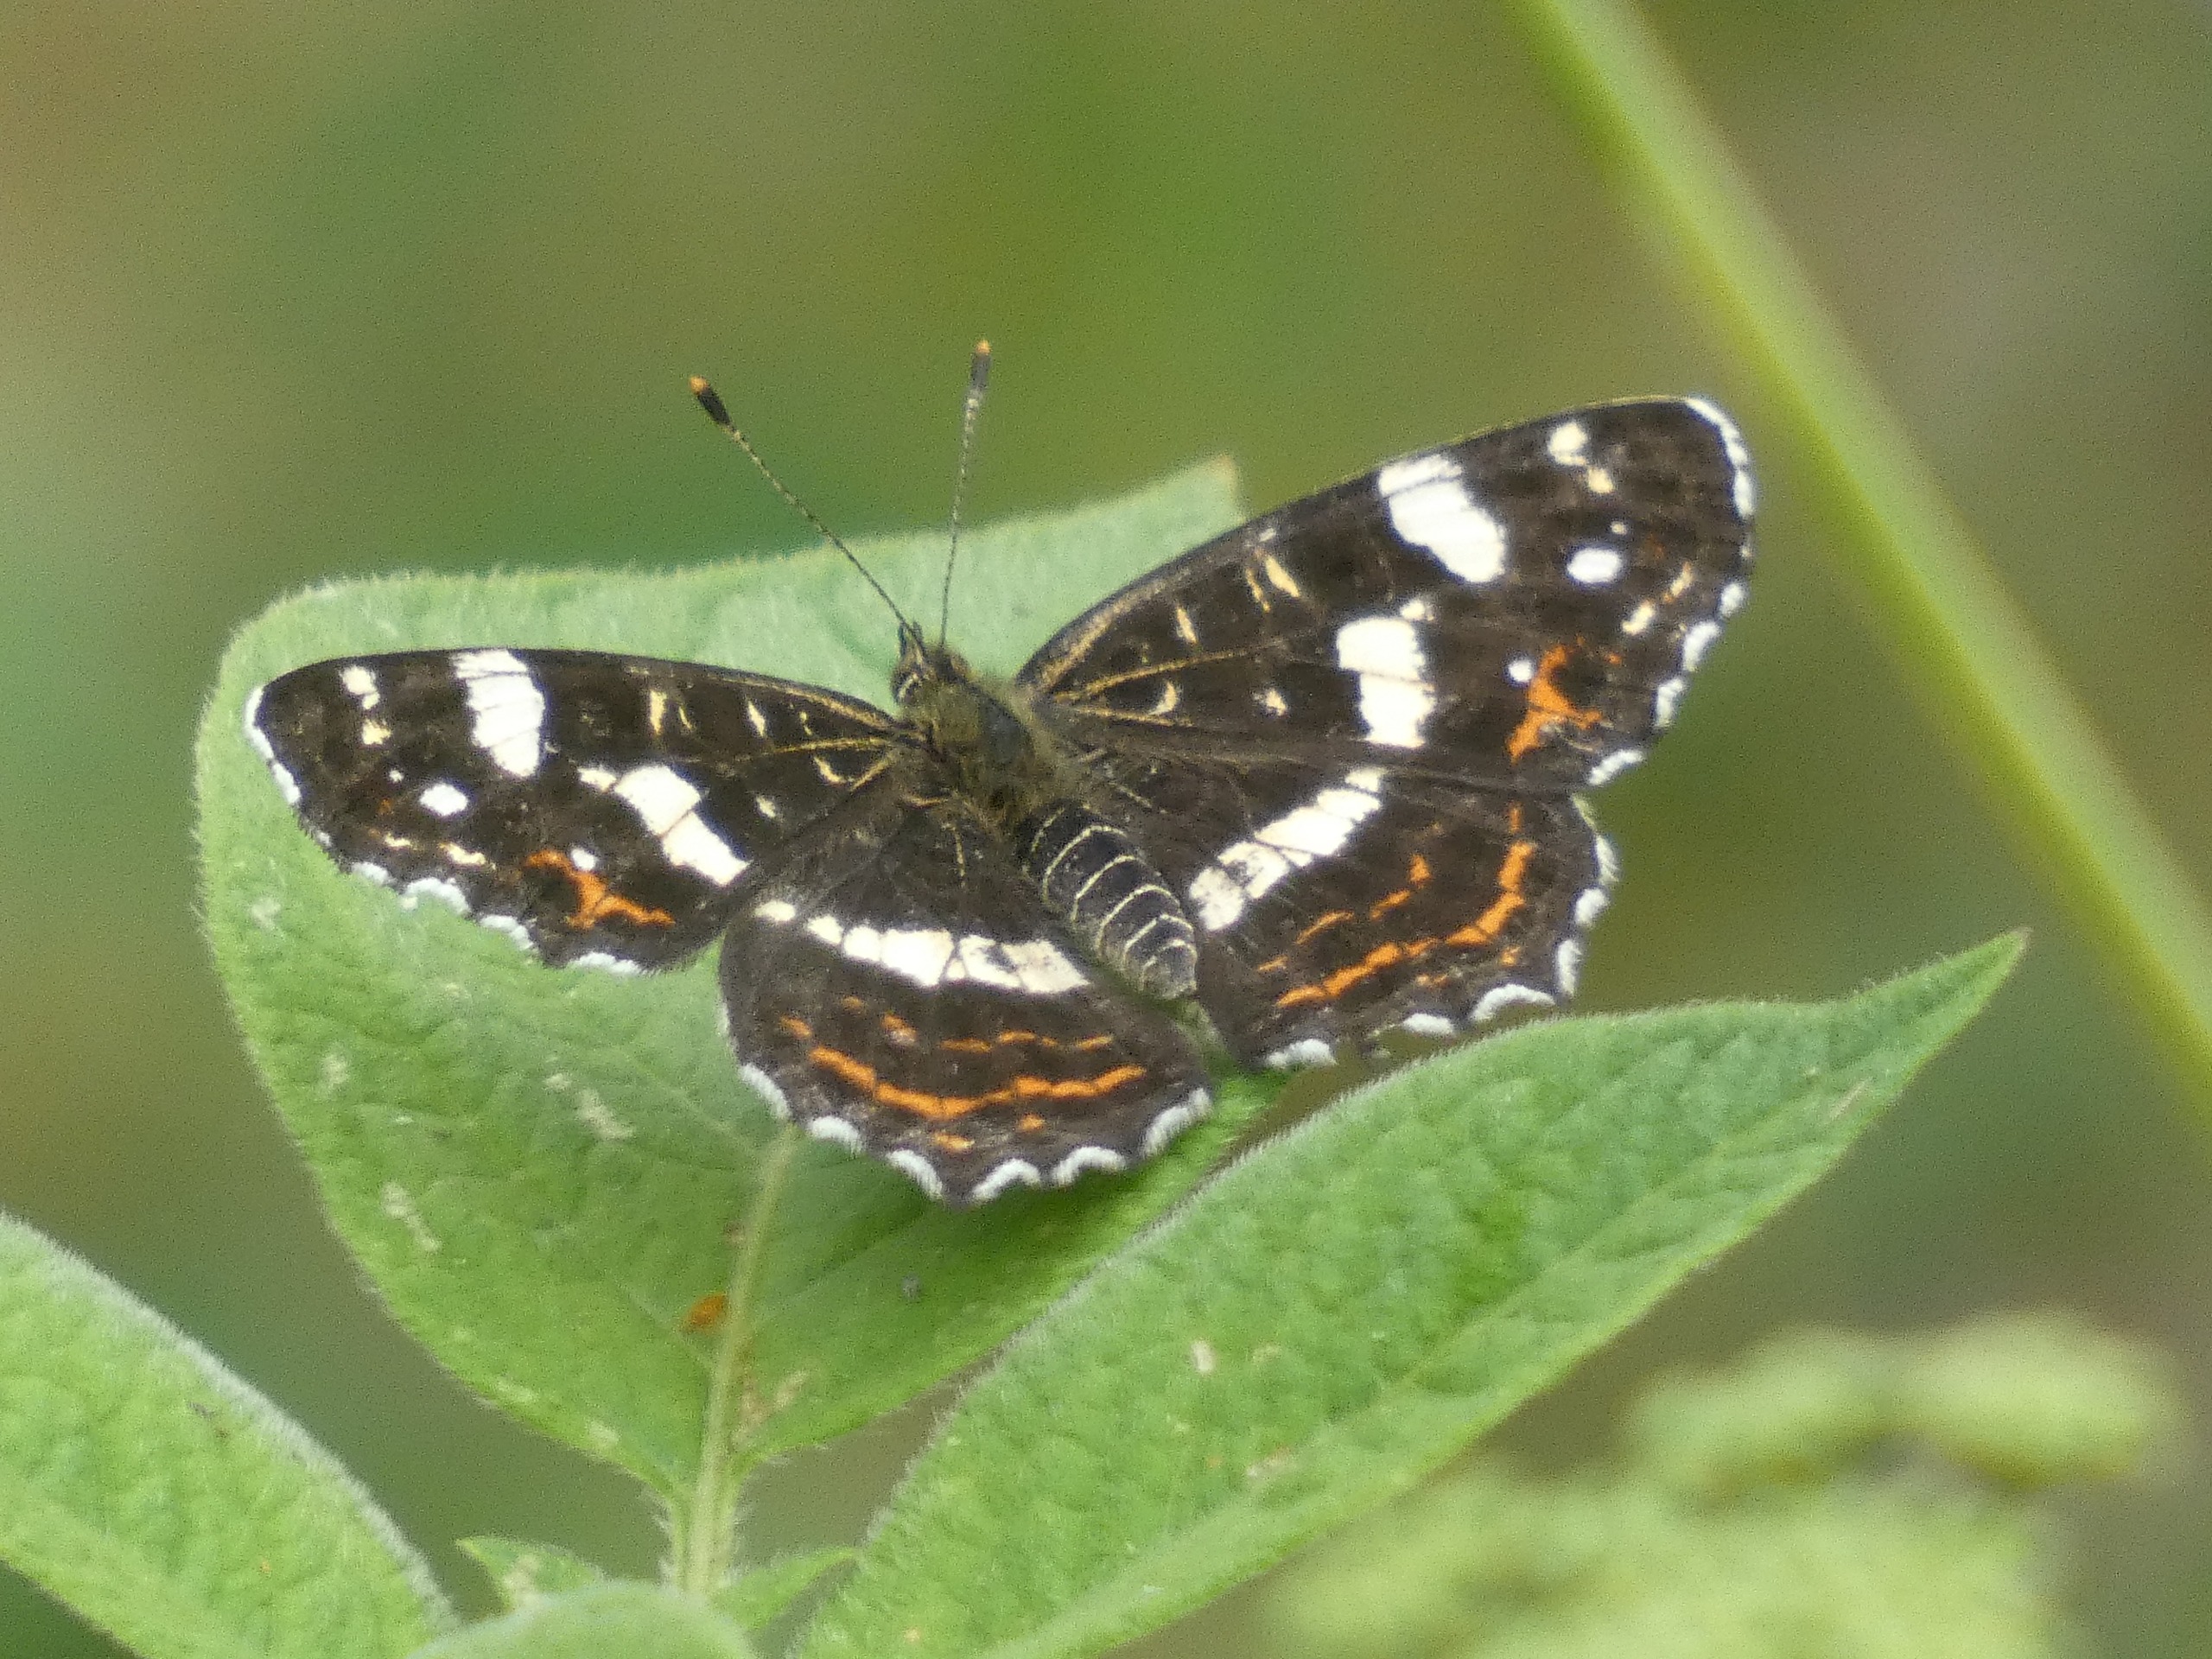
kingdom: Animalia
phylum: Arthropoda
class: Insecta
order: Lepidoptera
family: Nymphalidae
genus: Araschnia
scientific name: Araschnia levana
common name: Nældesommerfugl
